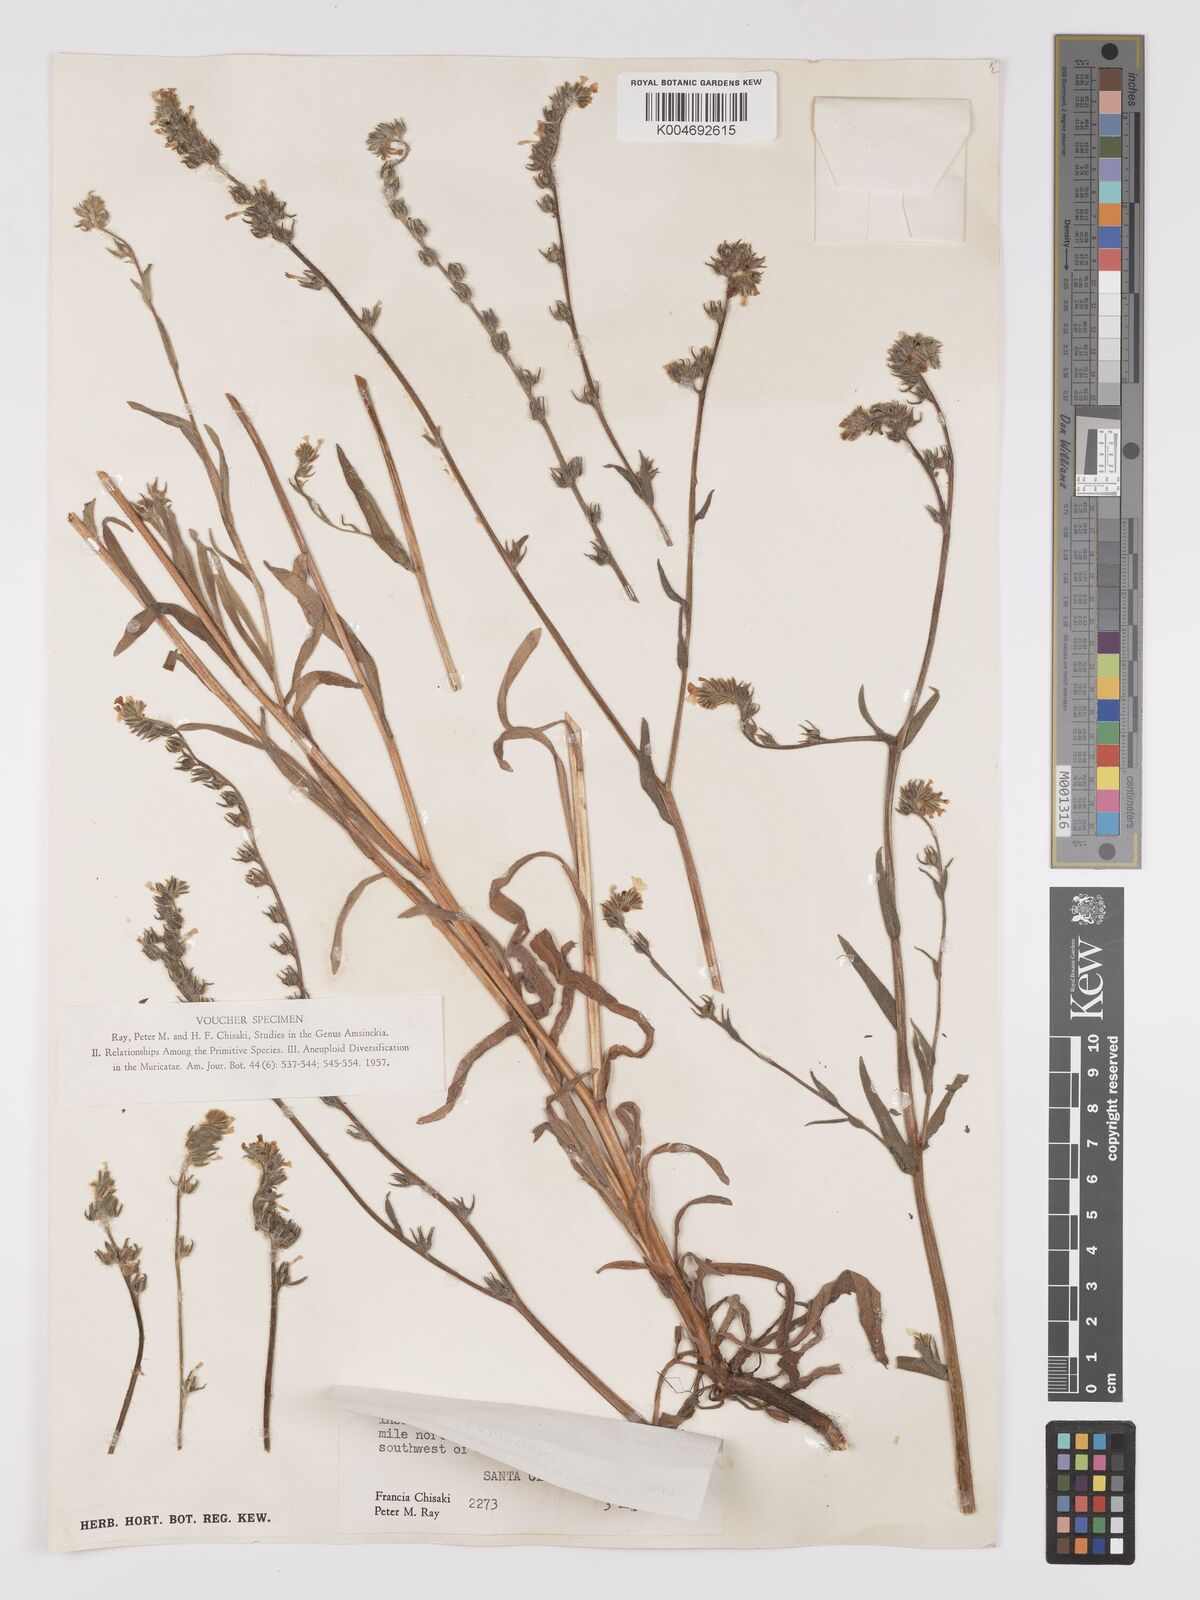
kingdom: Plantae
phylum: Tracheophyta
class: Magnoliopsida
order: Boraginales
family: Boraginaceae
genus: Amsinckia
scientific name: Amsinckia menziesii
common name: Menzies' fiddleneck
